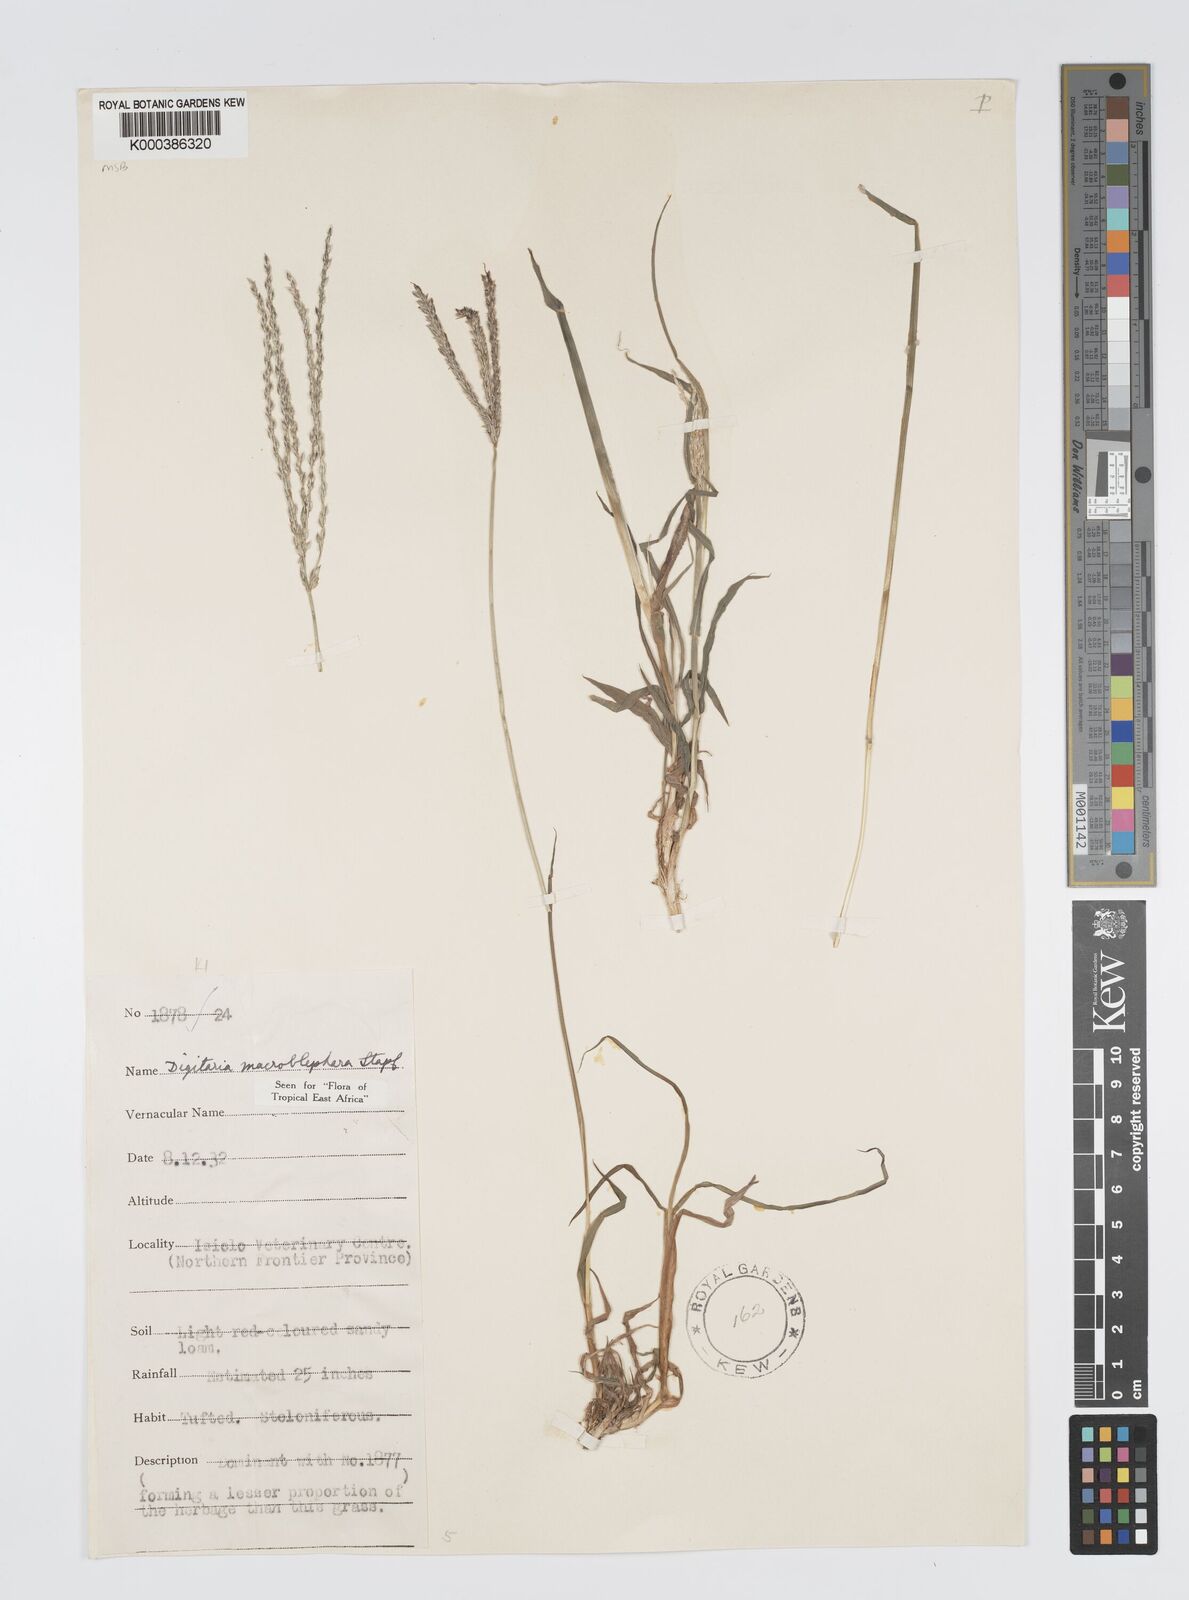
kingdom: Plantae
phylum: Tracheophyta
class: Liliopsida
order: Poales
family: Poaceae
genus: Digitaria
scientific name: Digitaria macroblephara
